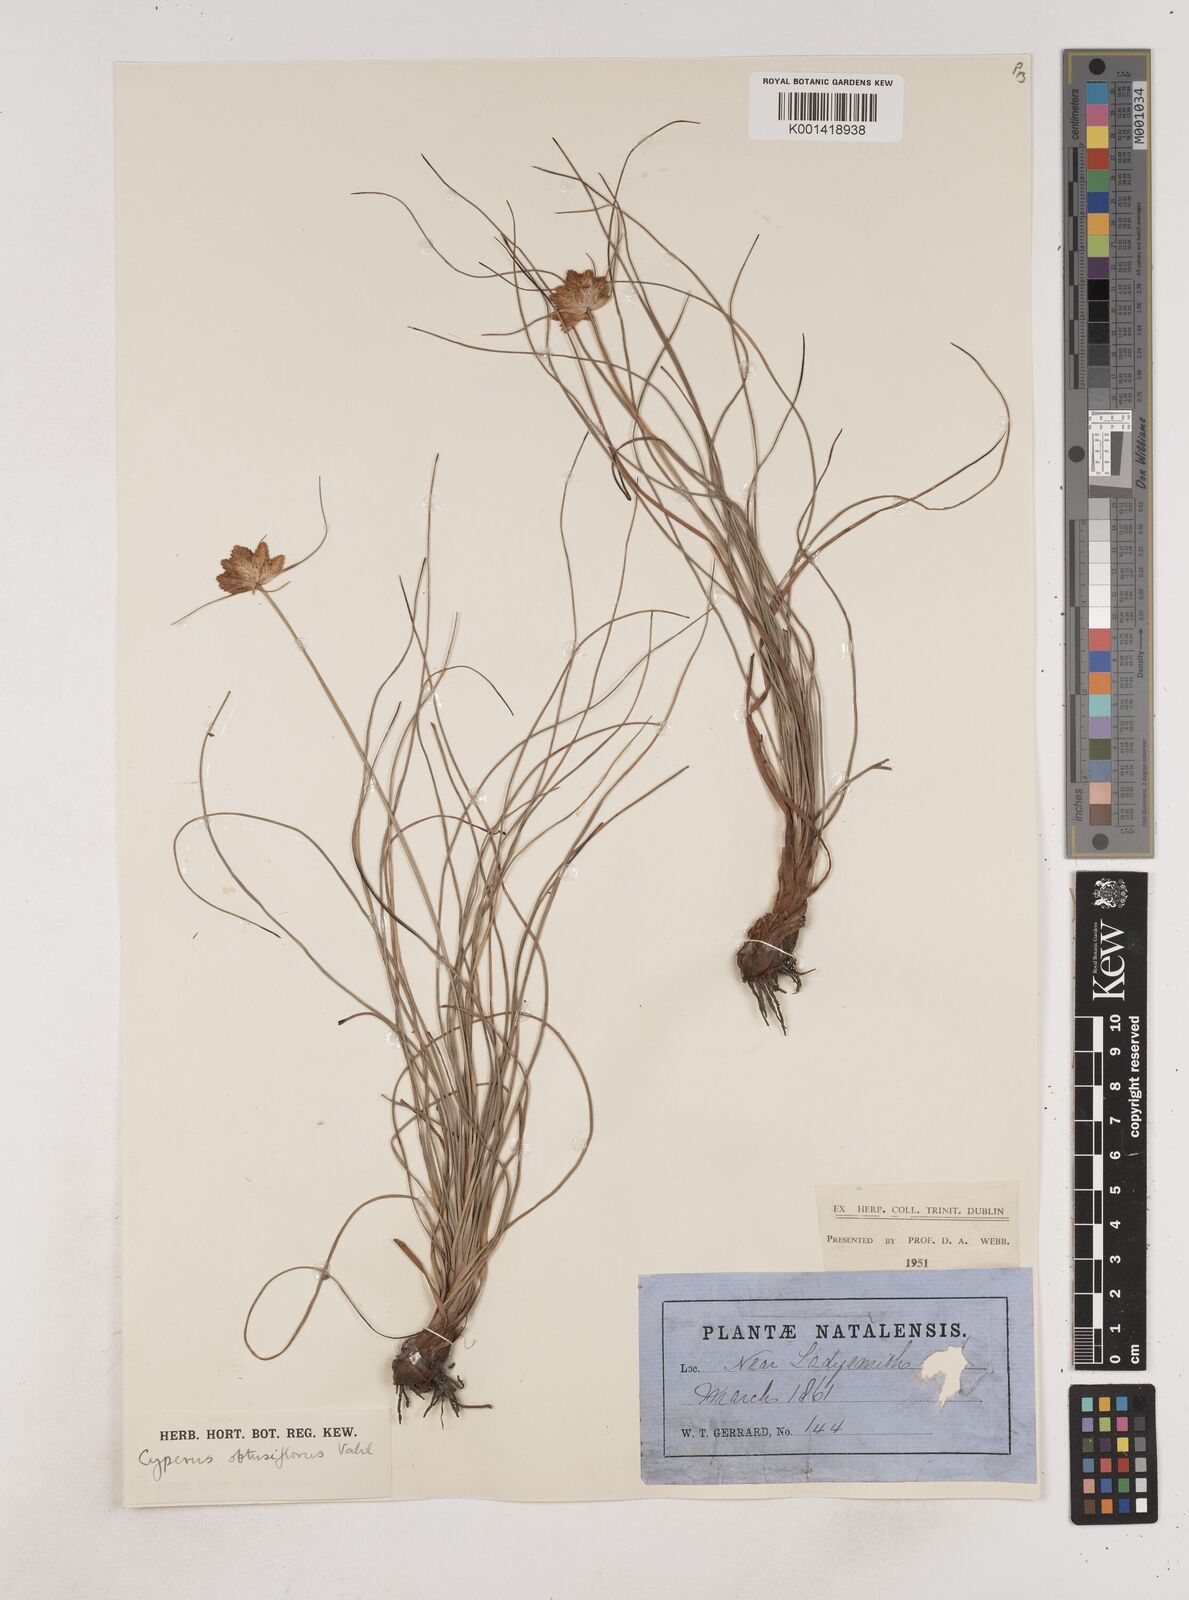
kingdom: Plantae
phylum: Tracheophyta
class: Liliopsida
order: Poales
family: Cyperaceae
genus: Cyperus
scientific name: Cyperus sphaerocephalus
